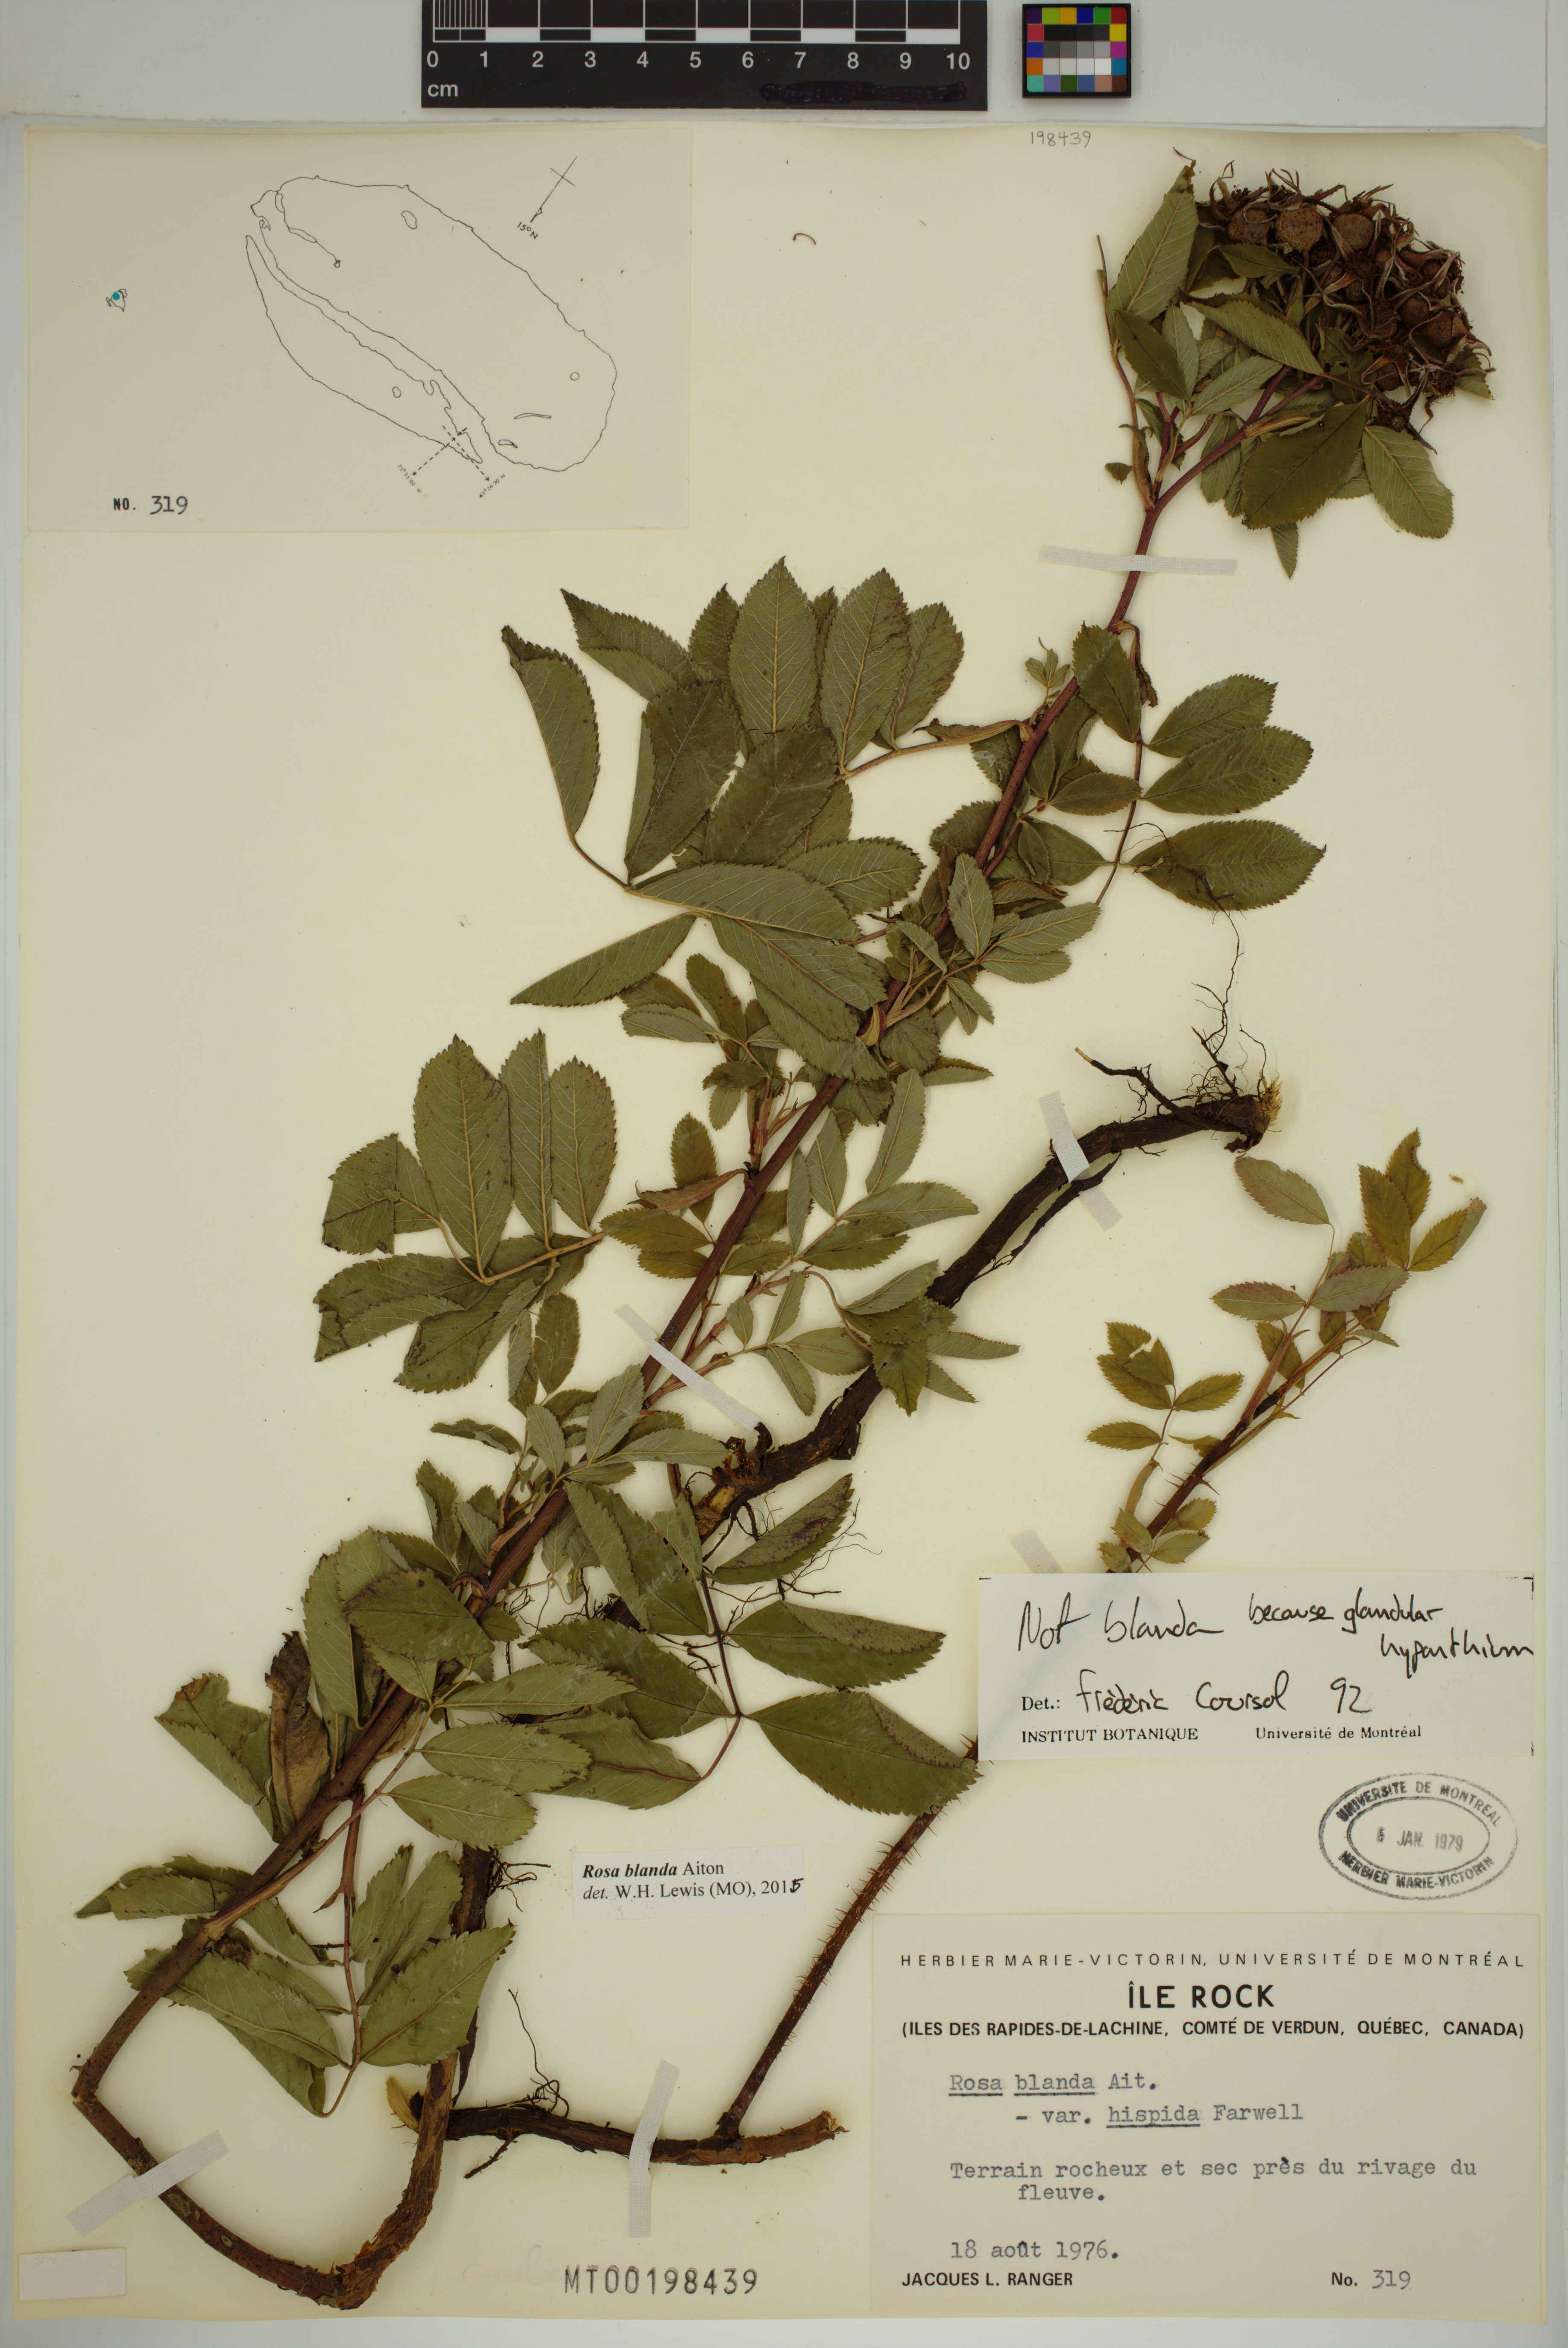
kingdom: Plantae
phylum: Tracheophyta
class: Magnoliopsida
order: Rosales
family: Rosaceae
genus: Rosa
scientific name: Rosa blanda
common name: Smooth rose
